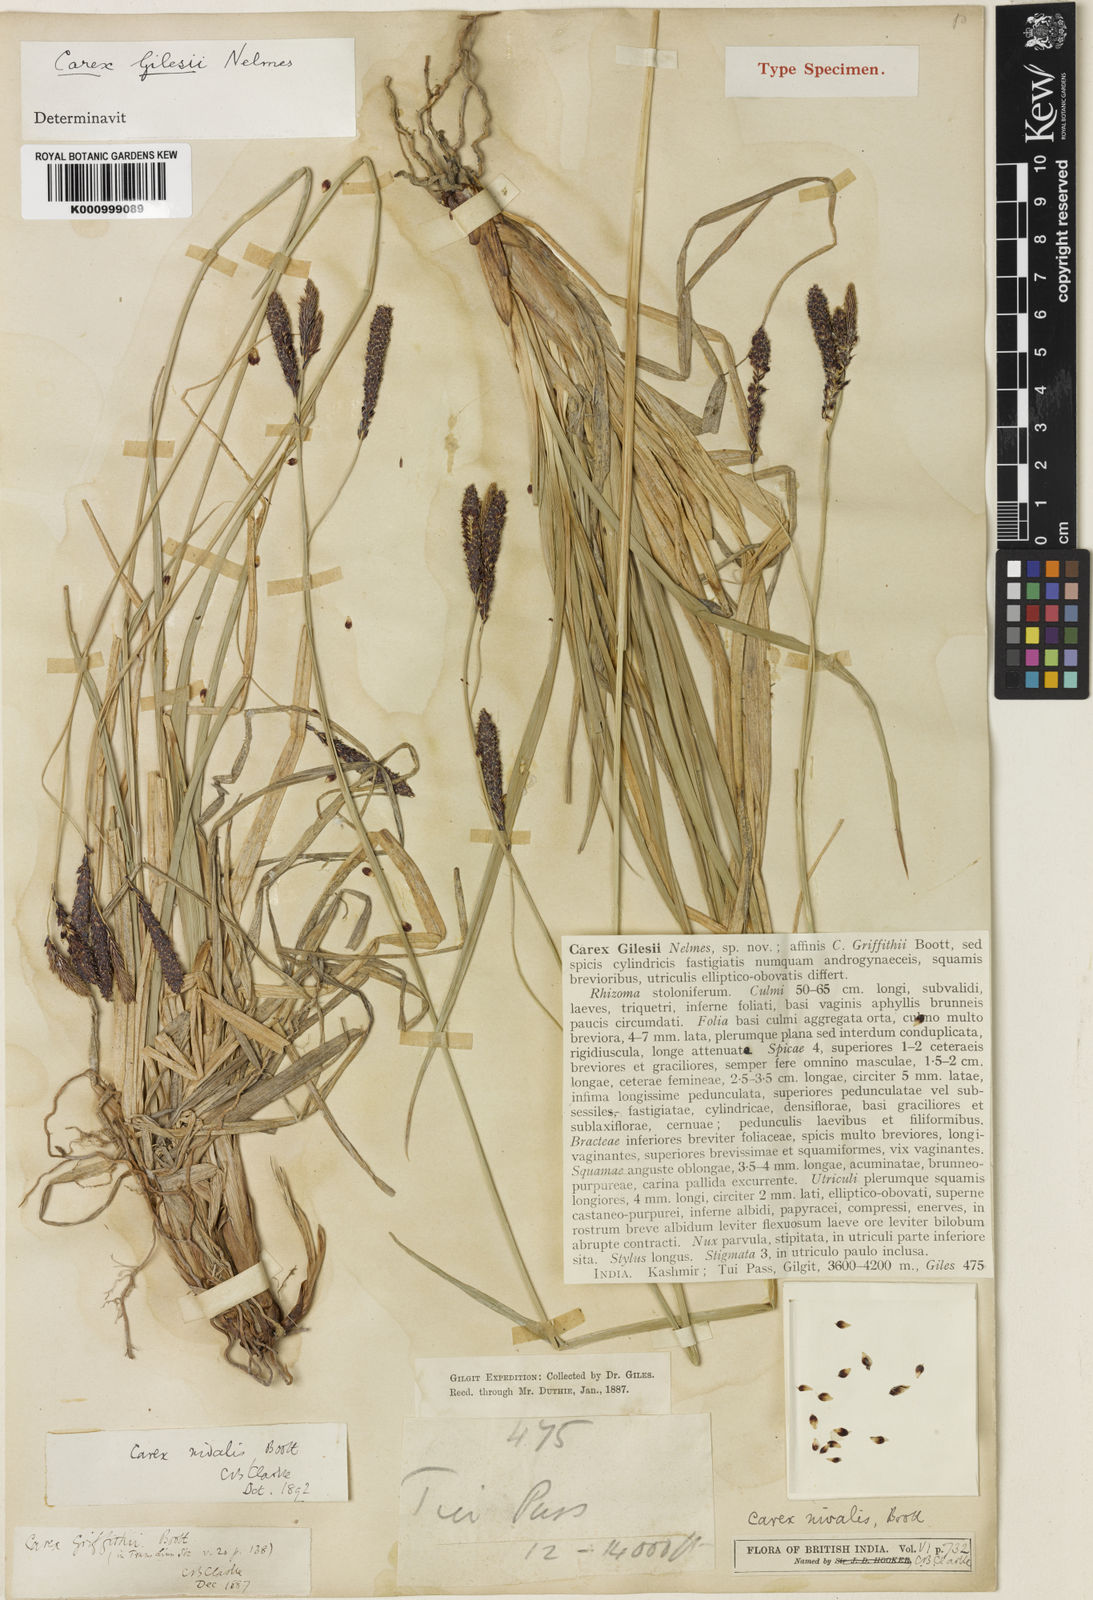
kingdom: Plantae
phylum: Tracheophyta
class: Liliopsida
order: Poales
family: Cyperaceae
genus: Carex
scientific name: Carex nivalis
